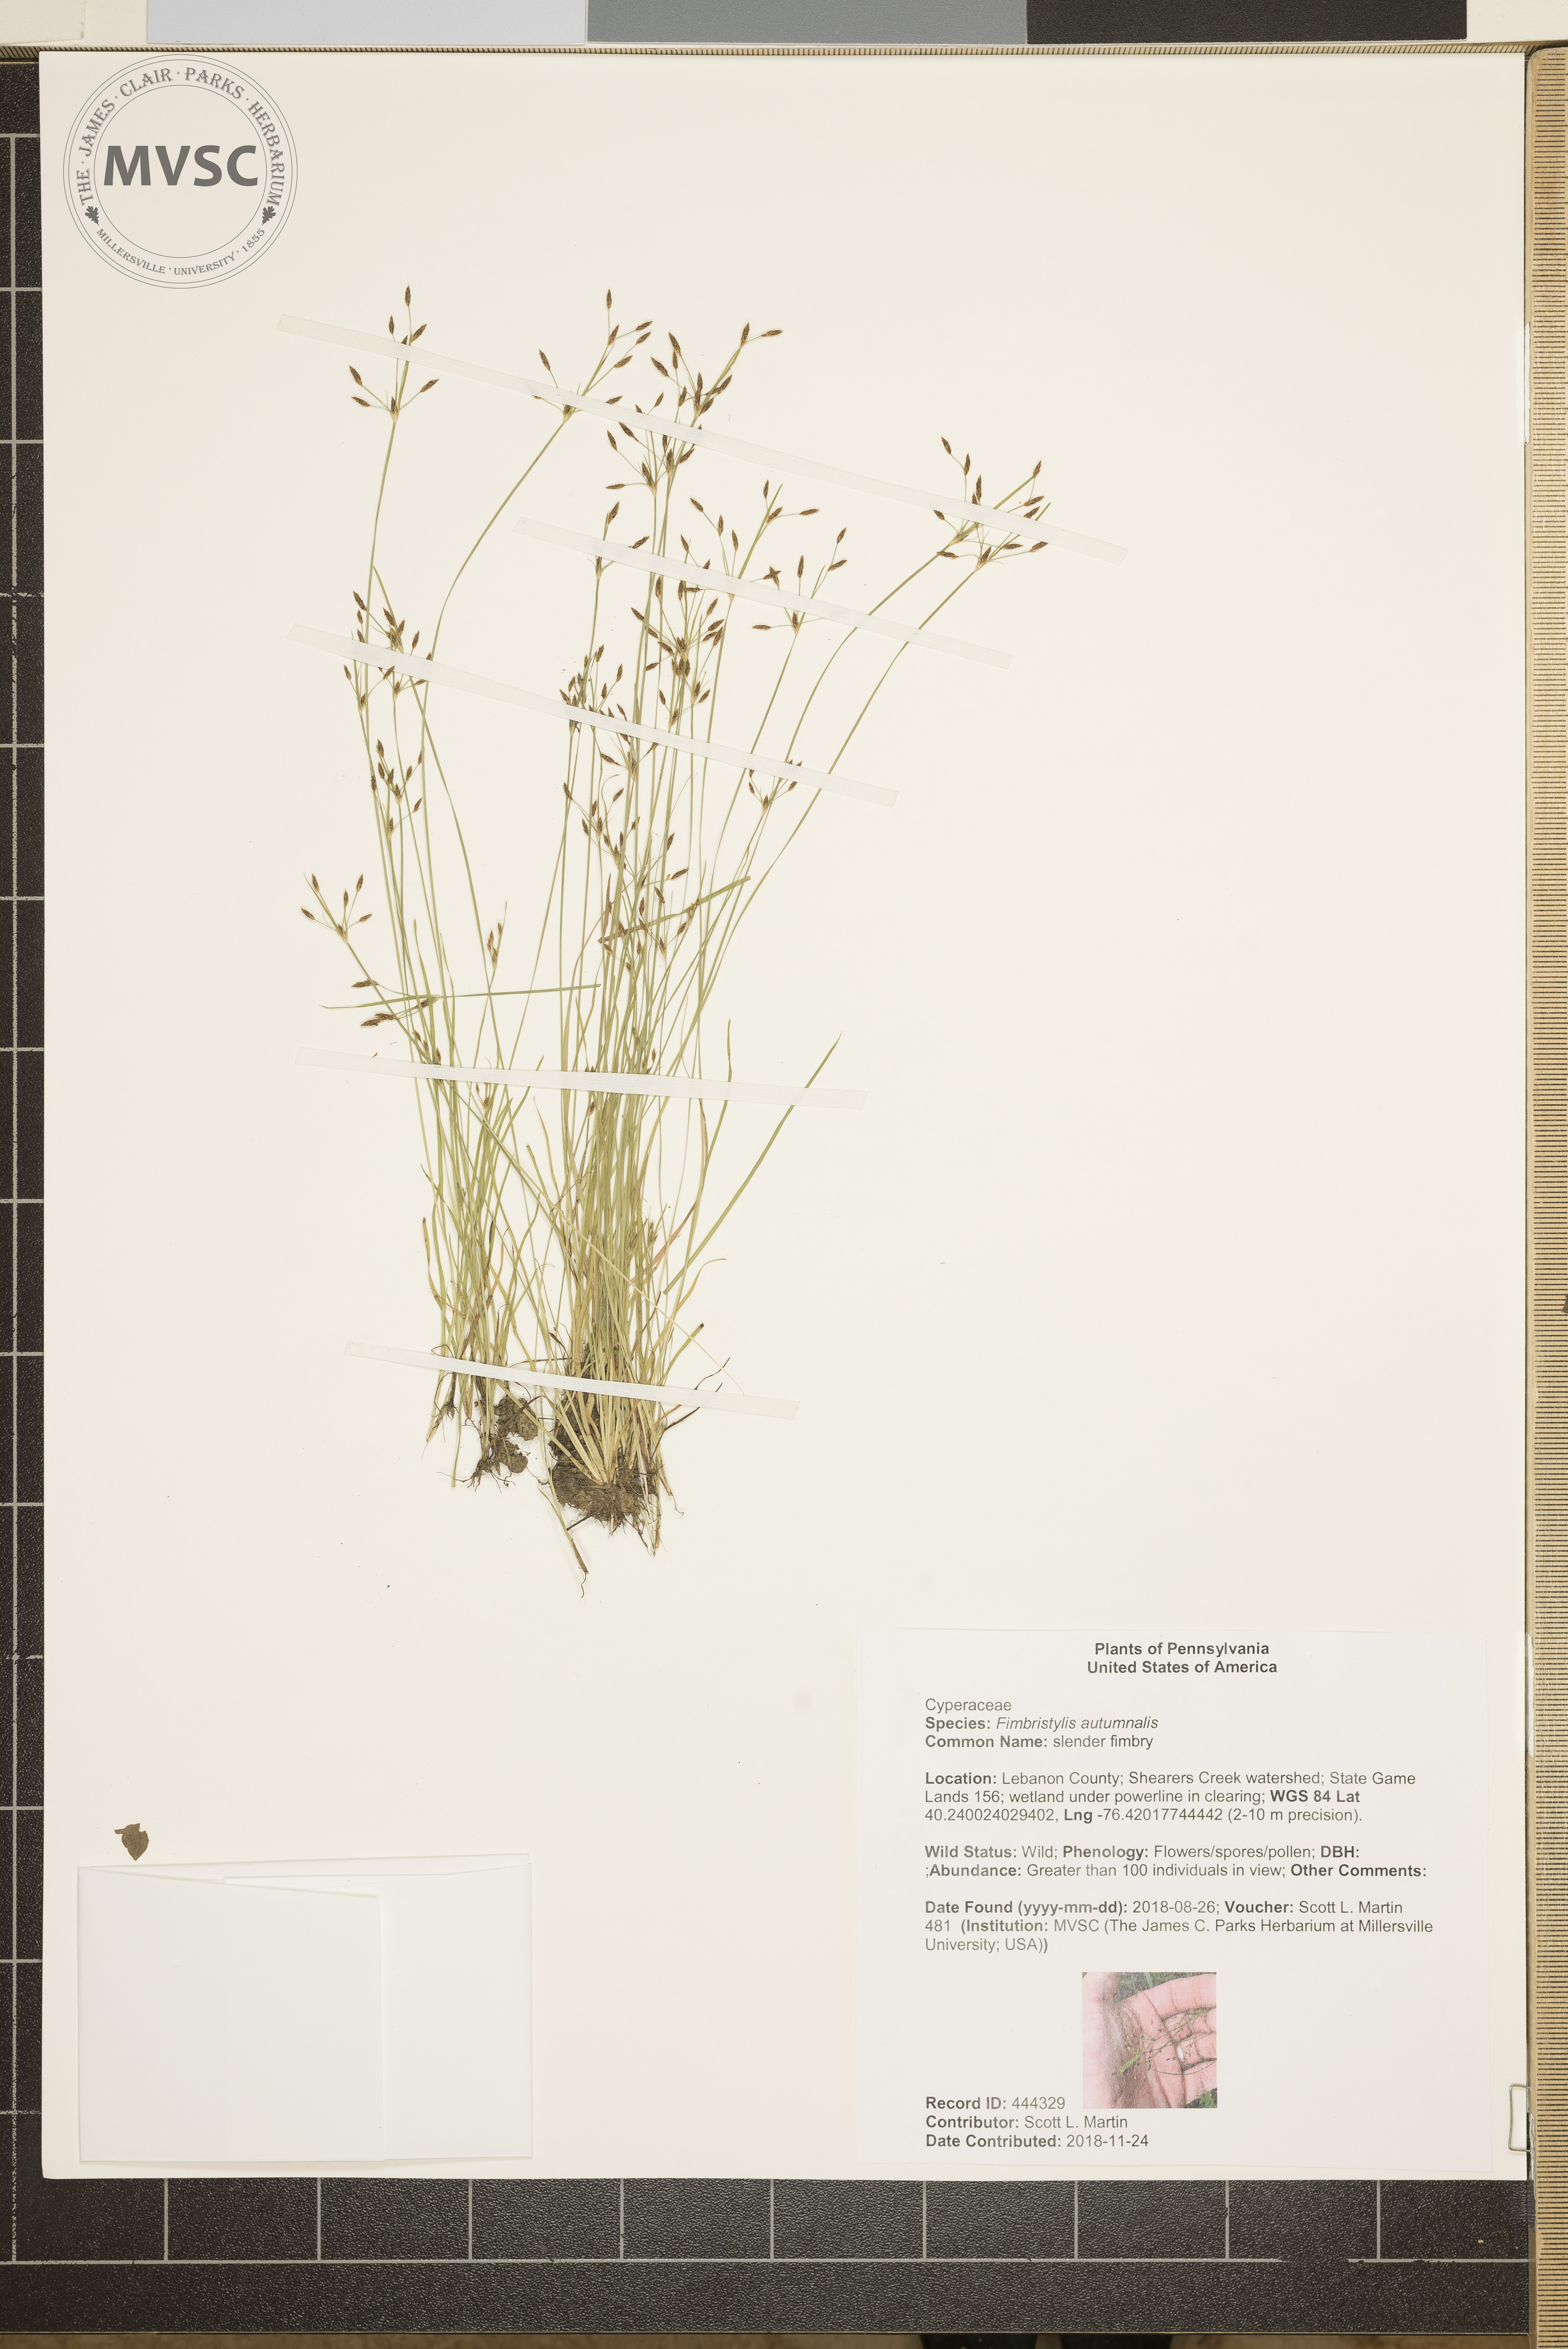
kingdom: Plantae
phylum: Tracheophyta
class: Liliopsida
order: Poales
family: Cyperaceae
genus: Fimbristylis
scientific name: Fimbristylis autumnalis
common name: slender fimbry
